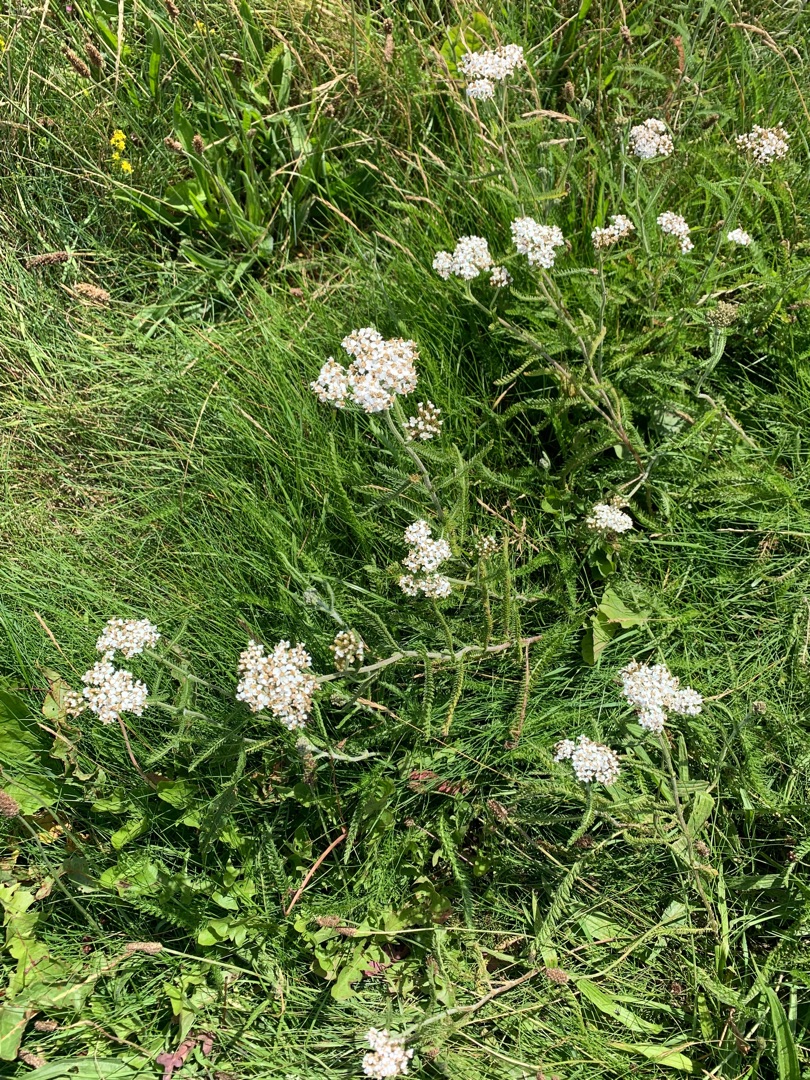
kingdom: Plantae
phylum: Tracheophyta
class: Magnoliopsida
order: Asterales
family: Asteraceae
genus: Achillea
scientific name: Achillea millefolium
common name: Almindelig røllike
